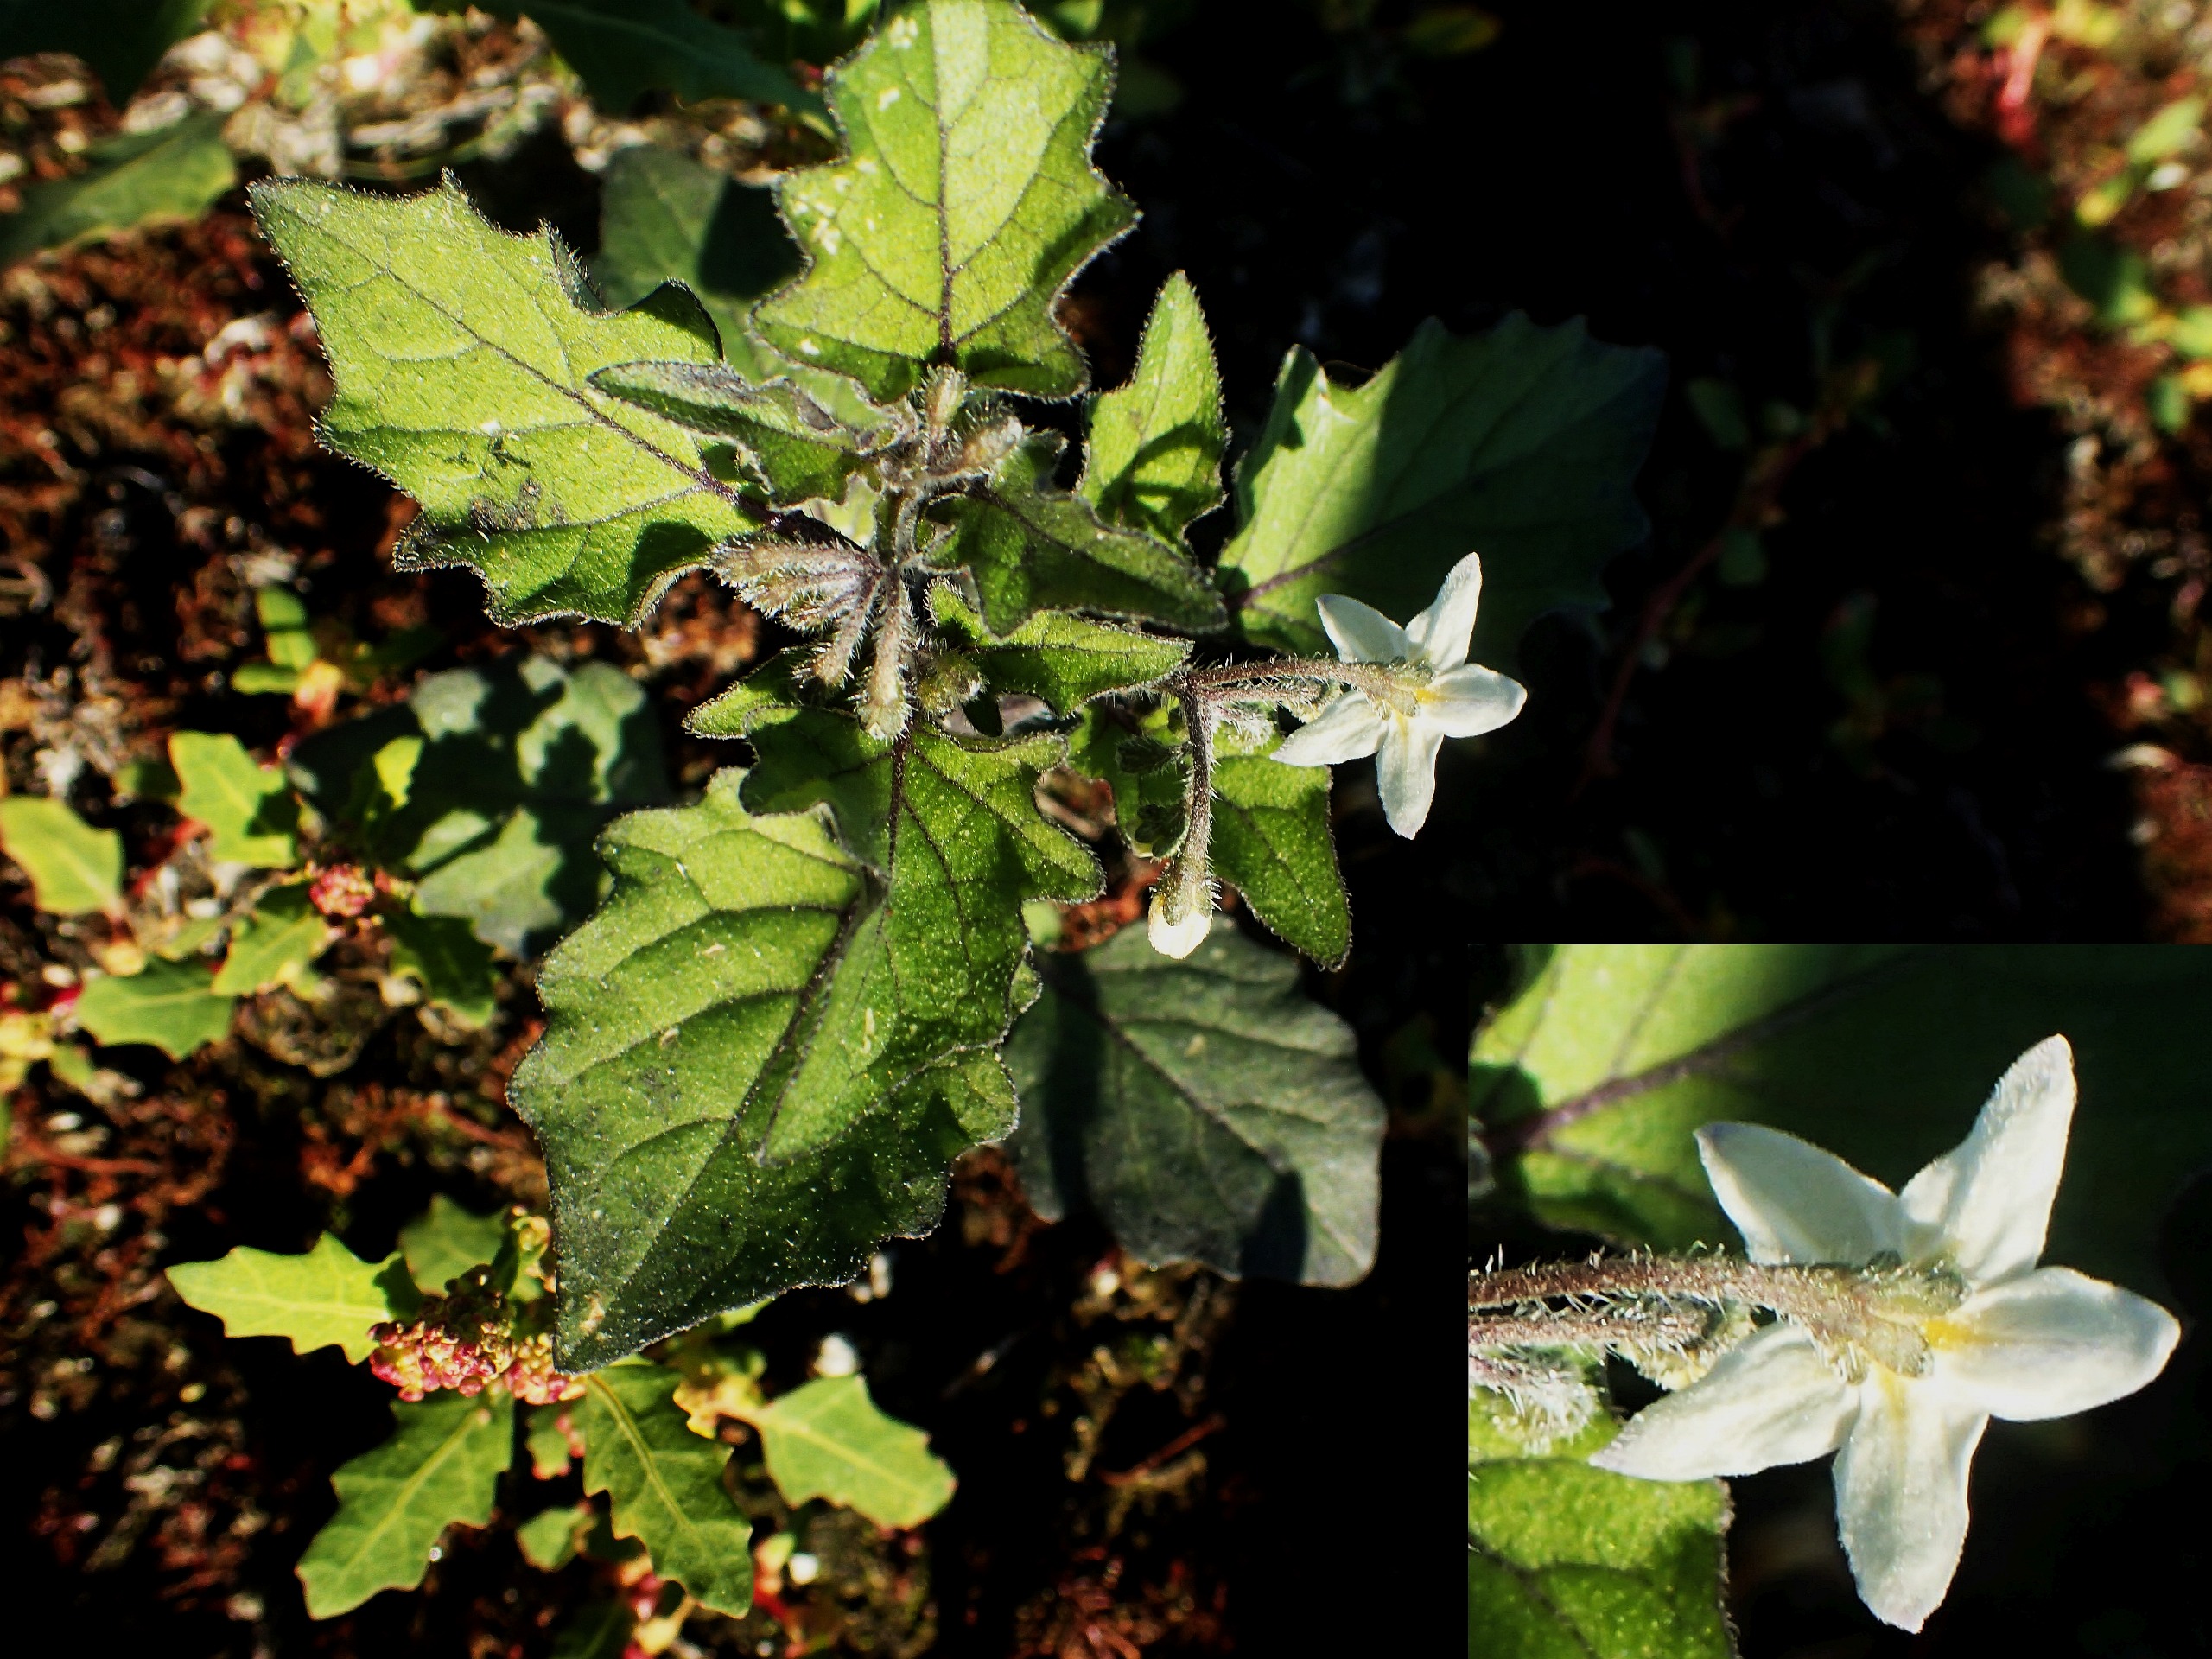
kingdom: Plantae
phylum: Tracheophyta
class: Magnoliopsida
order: Solanales
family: Solanaceae
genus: Solanum
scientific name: Solanum decipiens
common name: Kirtel-natskygge
